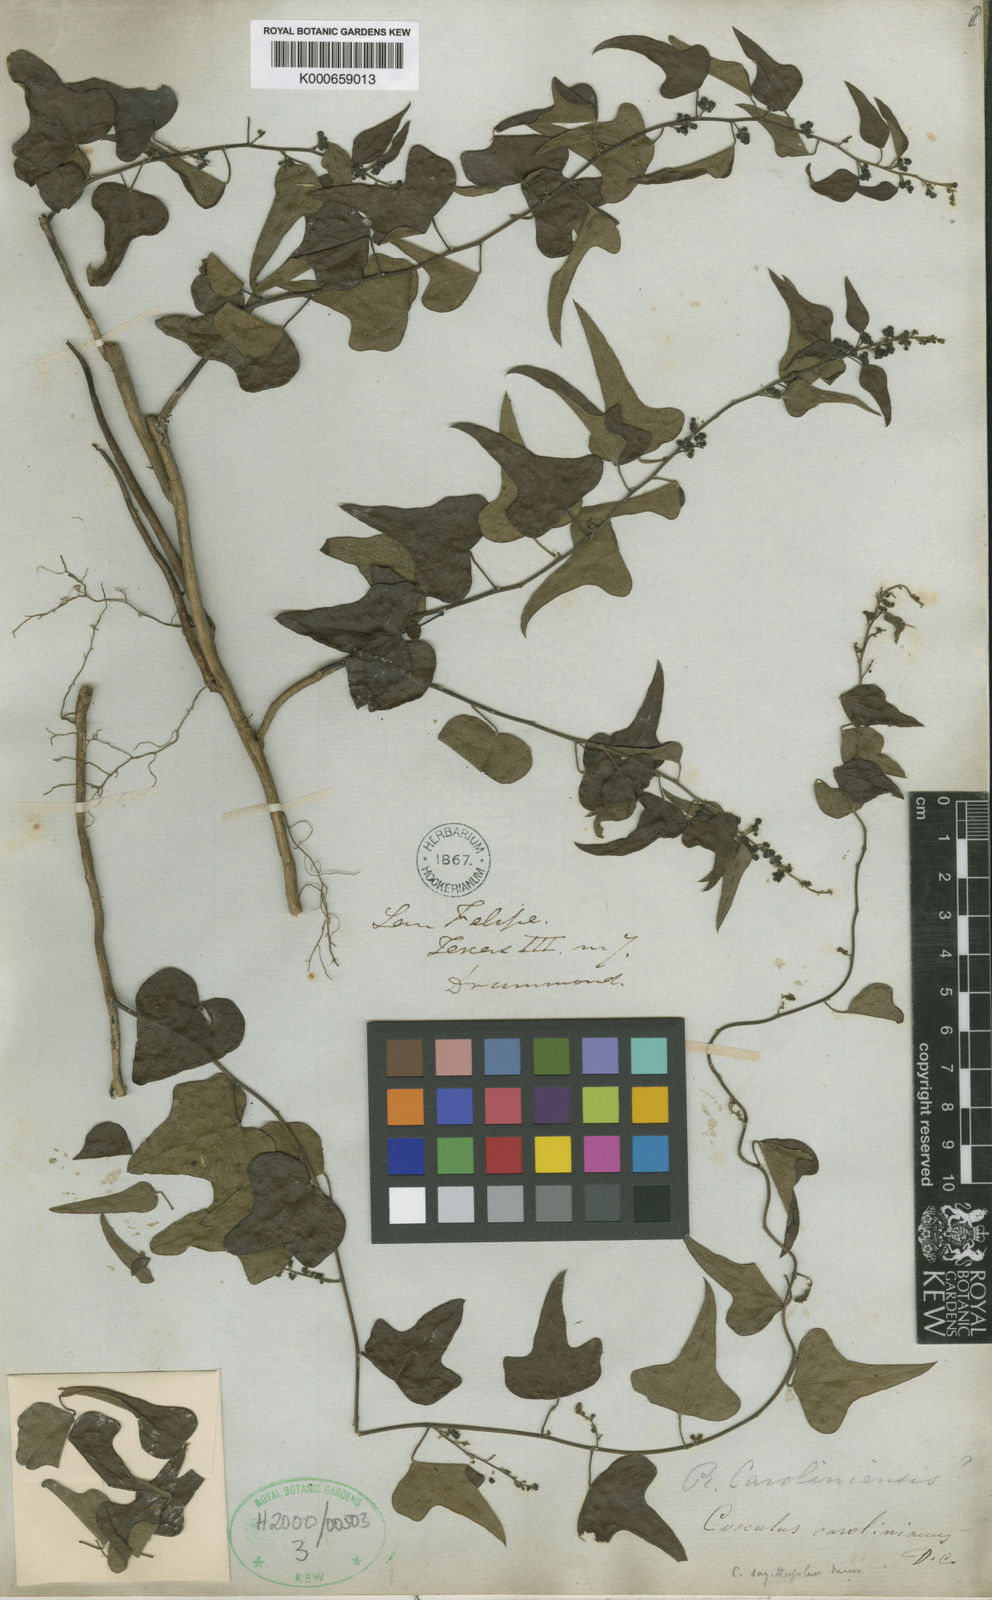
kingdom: Plantae
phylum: Tracheophyta
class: Magnoliopsida
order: Ranunculales
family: Menispermaceae
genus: Cocculus
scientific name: Cocculus carolinus
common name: Carolina moonseed
